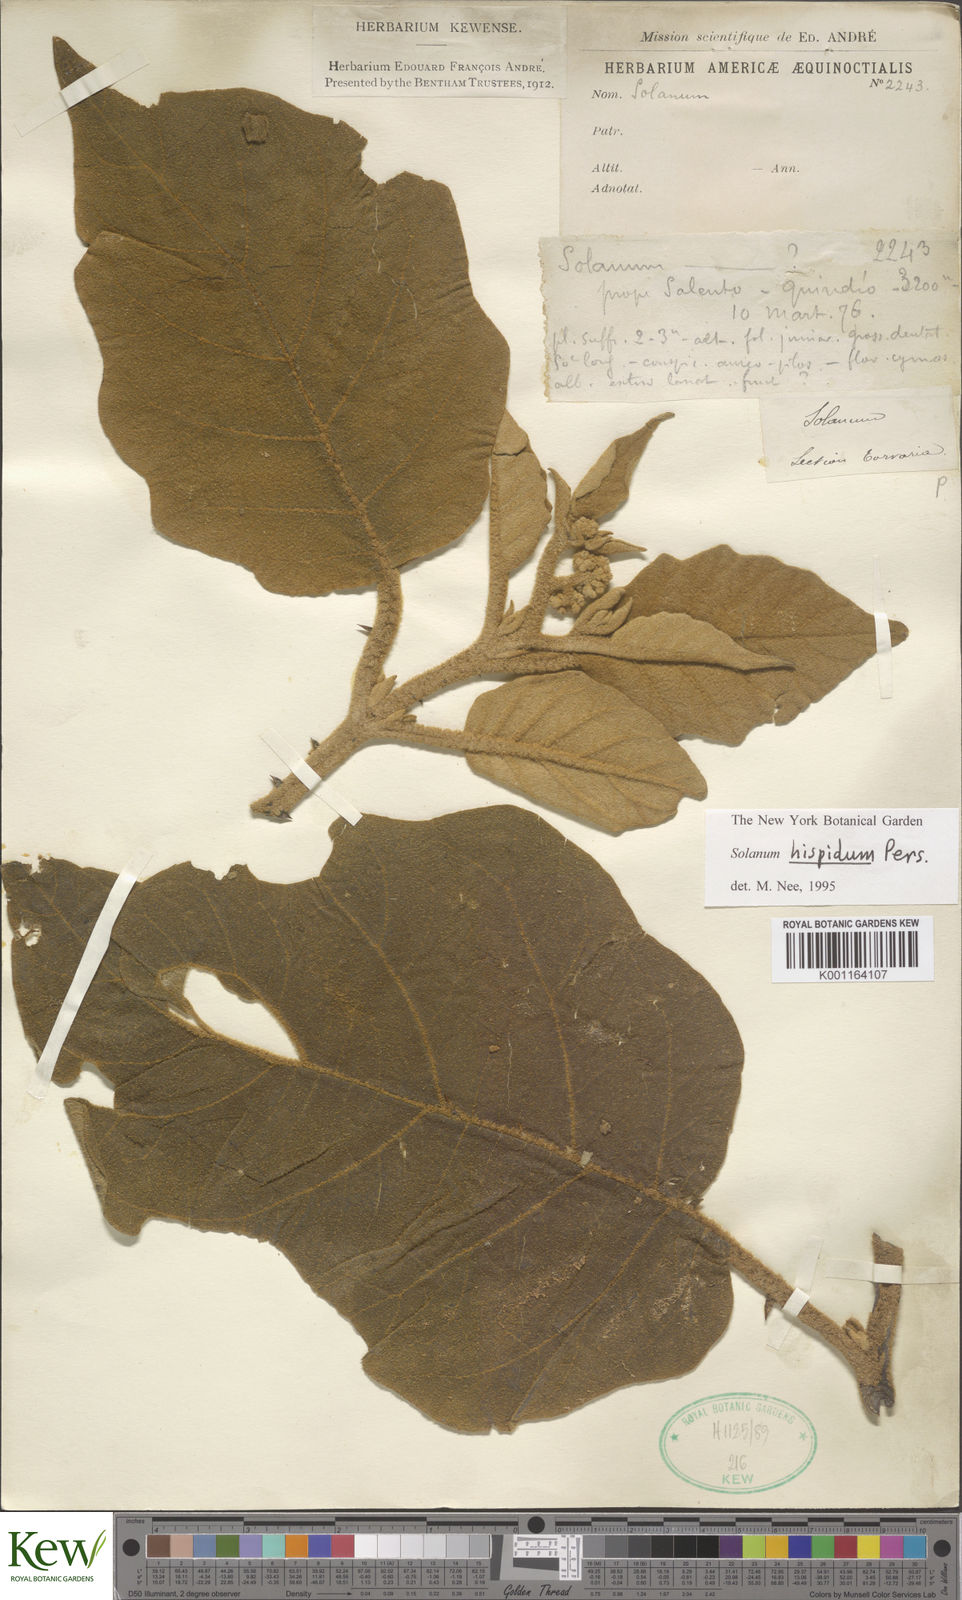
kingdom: Plantae
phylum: Tracheophyta
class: Magnoliopsida
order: Solanales
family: Solanaceae
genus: Solanum
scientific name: Solanum hirtum
